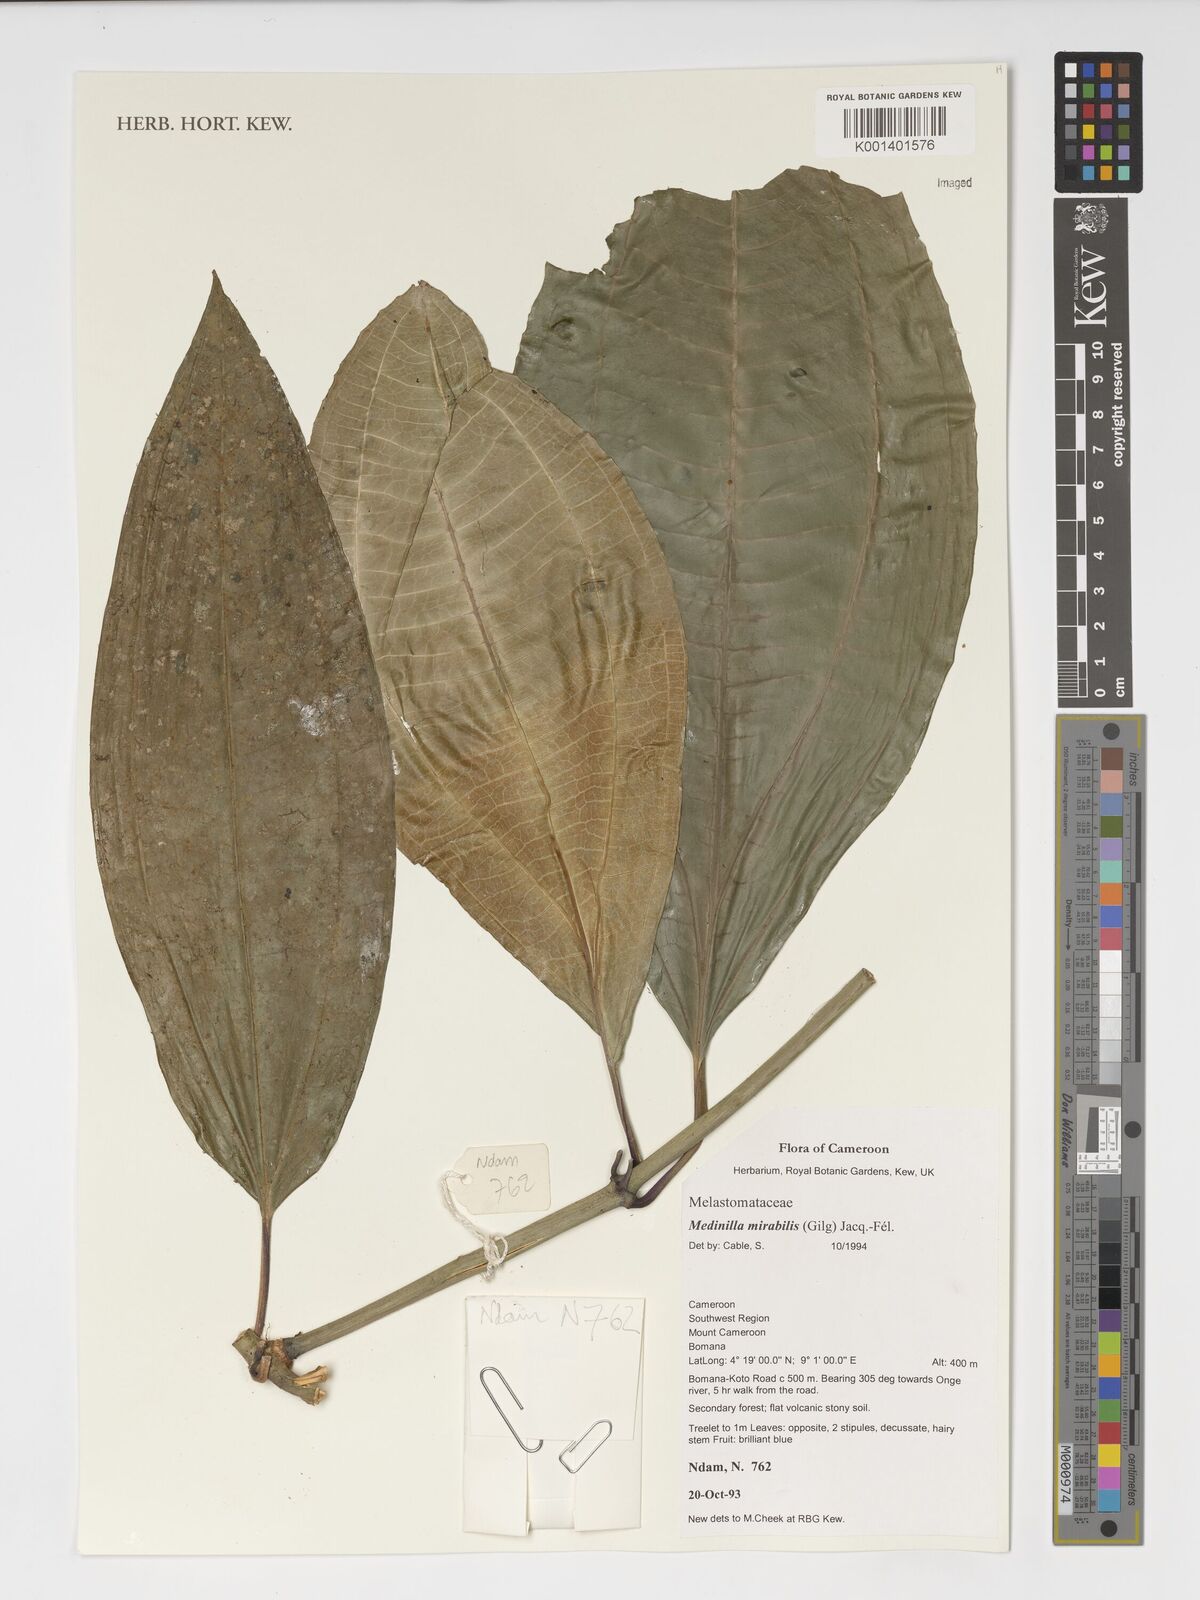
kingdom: Plantae
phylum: Tracheophyta
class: Magnoliopsida
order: Myrtales
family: Melastomataceae
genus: Medinilla
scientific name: Medinilla mirabile
